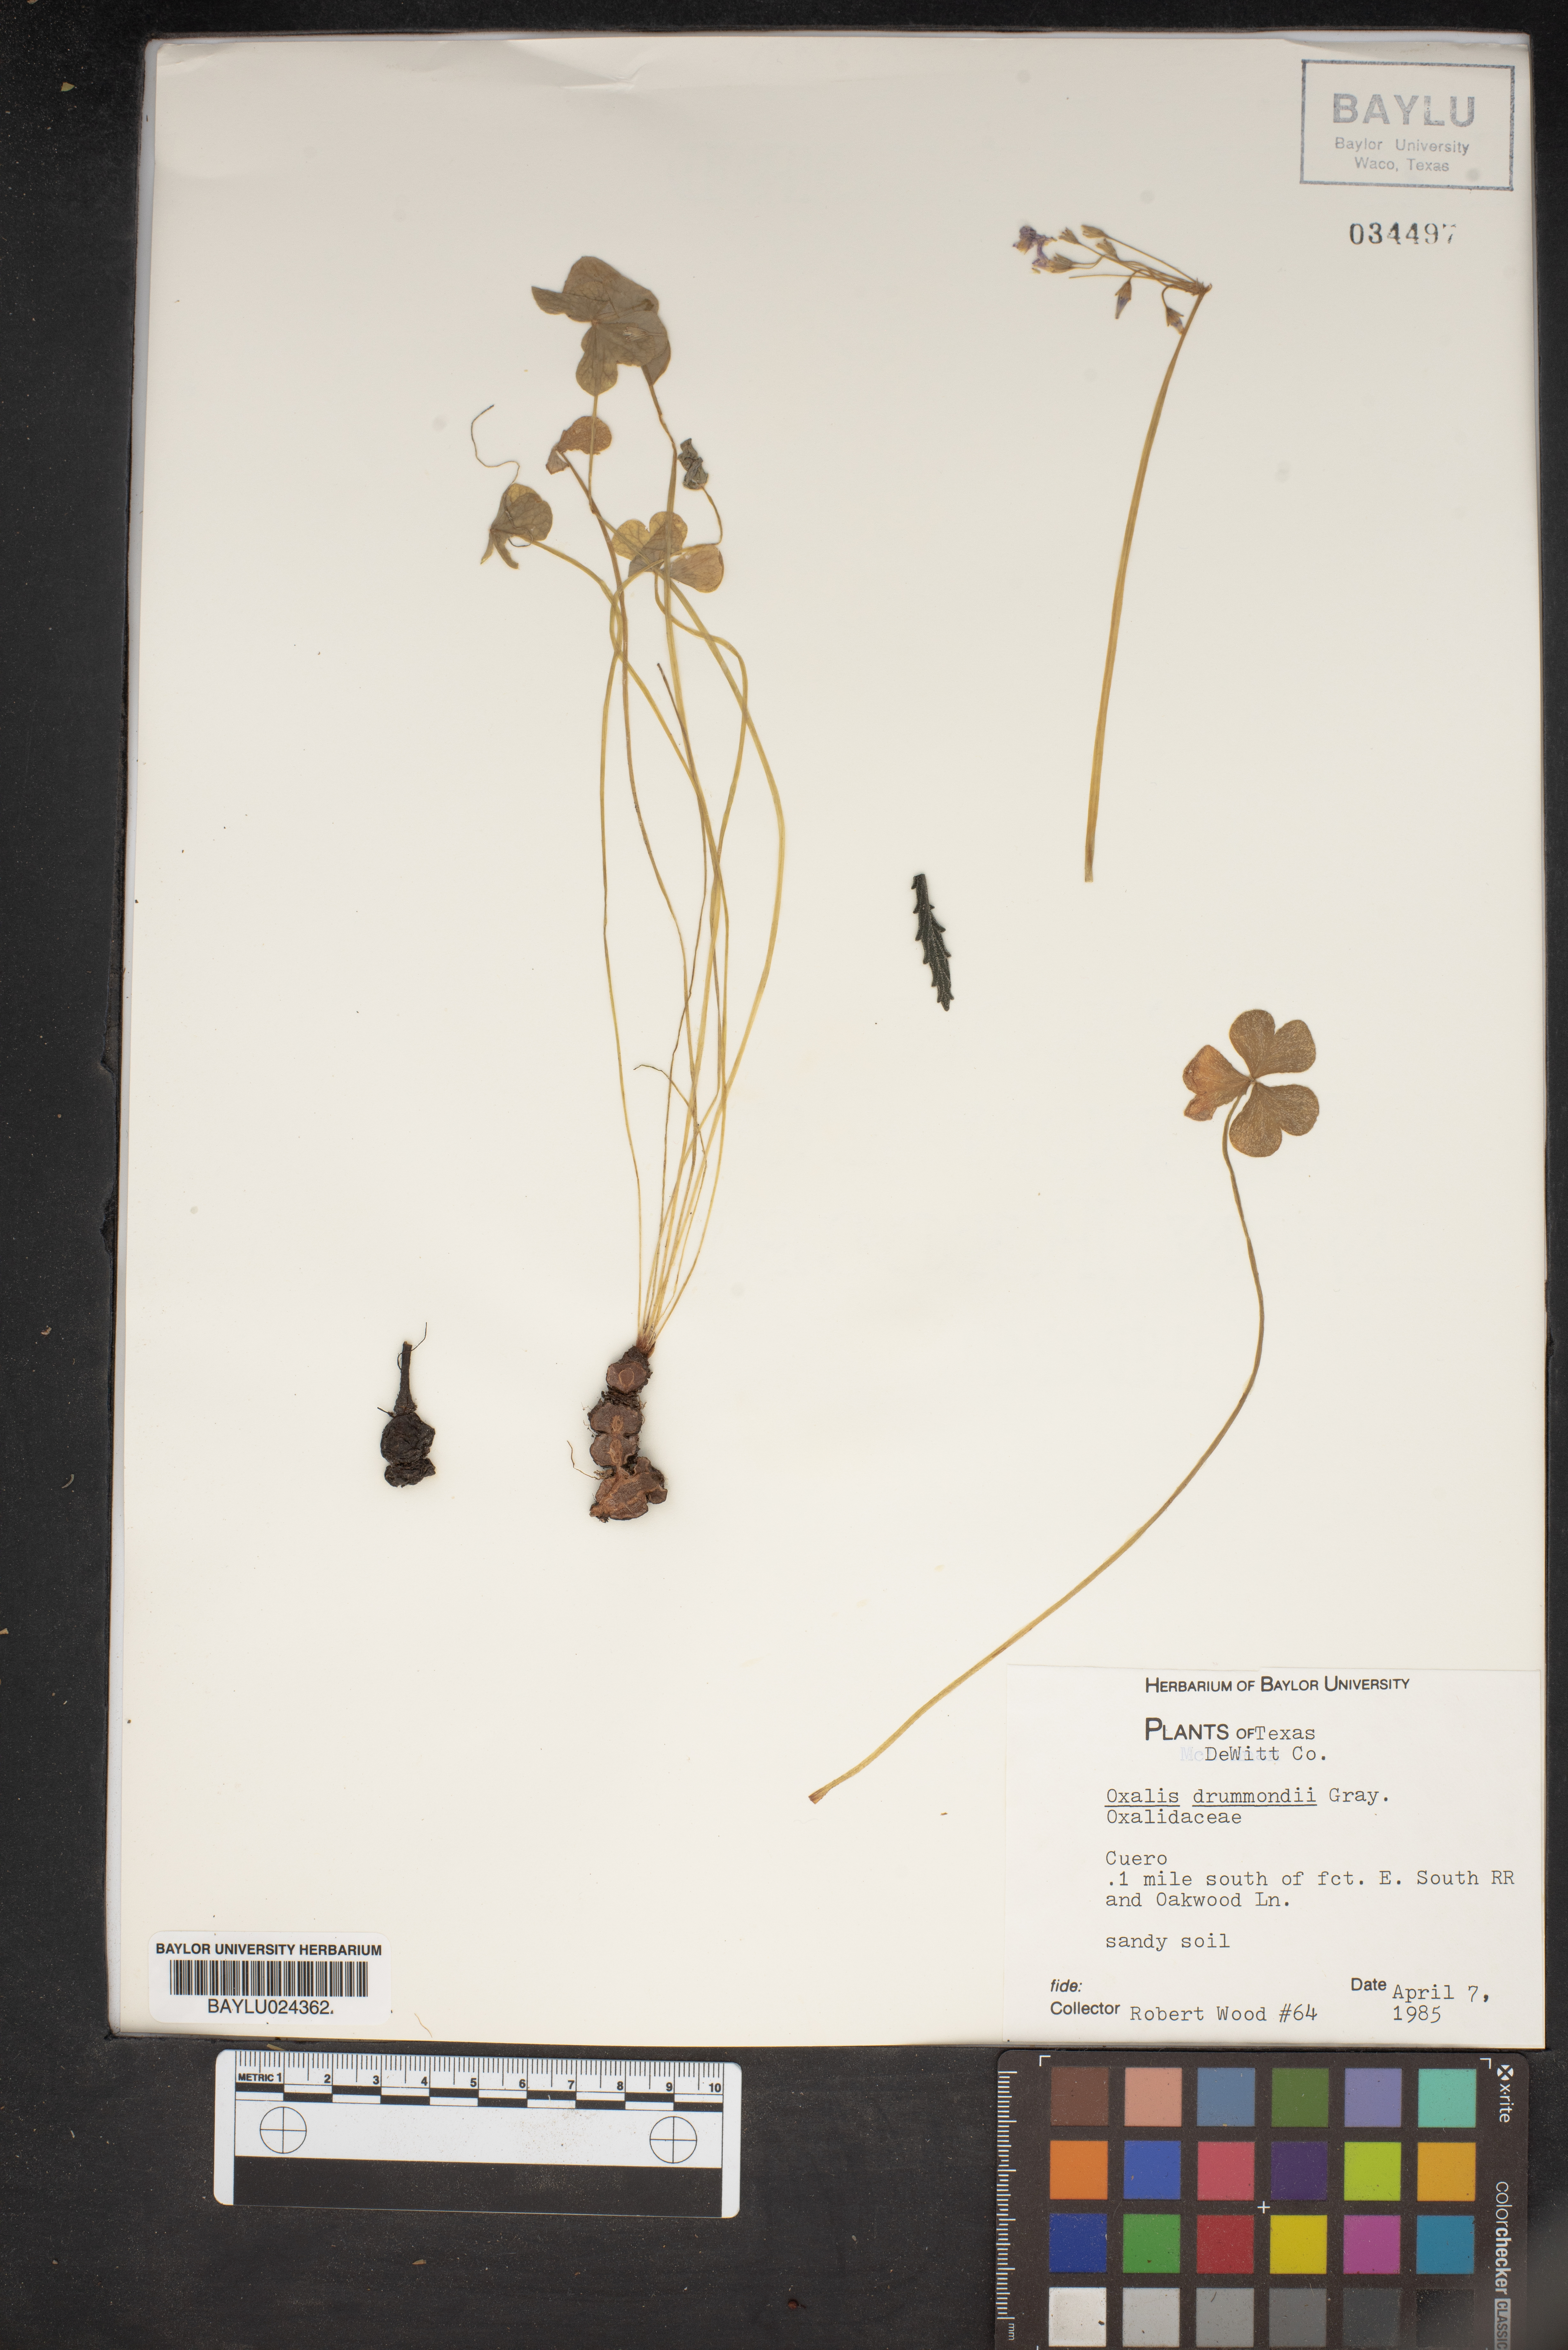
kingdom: Plantae
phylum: Tracheophyta
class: Magnoliopsida
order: Oxalidales
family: Oxalidaceae
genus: Oxalis
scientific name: Oxalis drummondii
